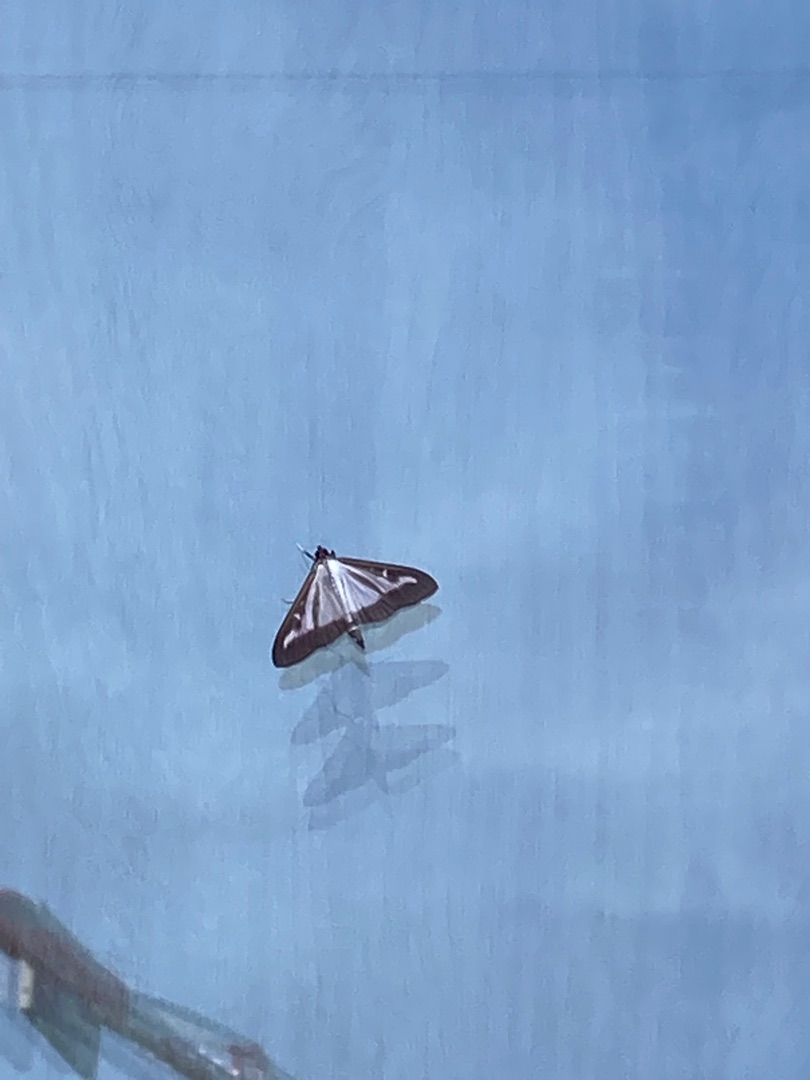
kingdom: Animalia
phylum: Arthropoda
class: Insecta
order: Lepidoptera
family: Crambidae
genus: Cydalima
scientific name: Cydalima perspectalis
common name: Buksbomhalvmøl
